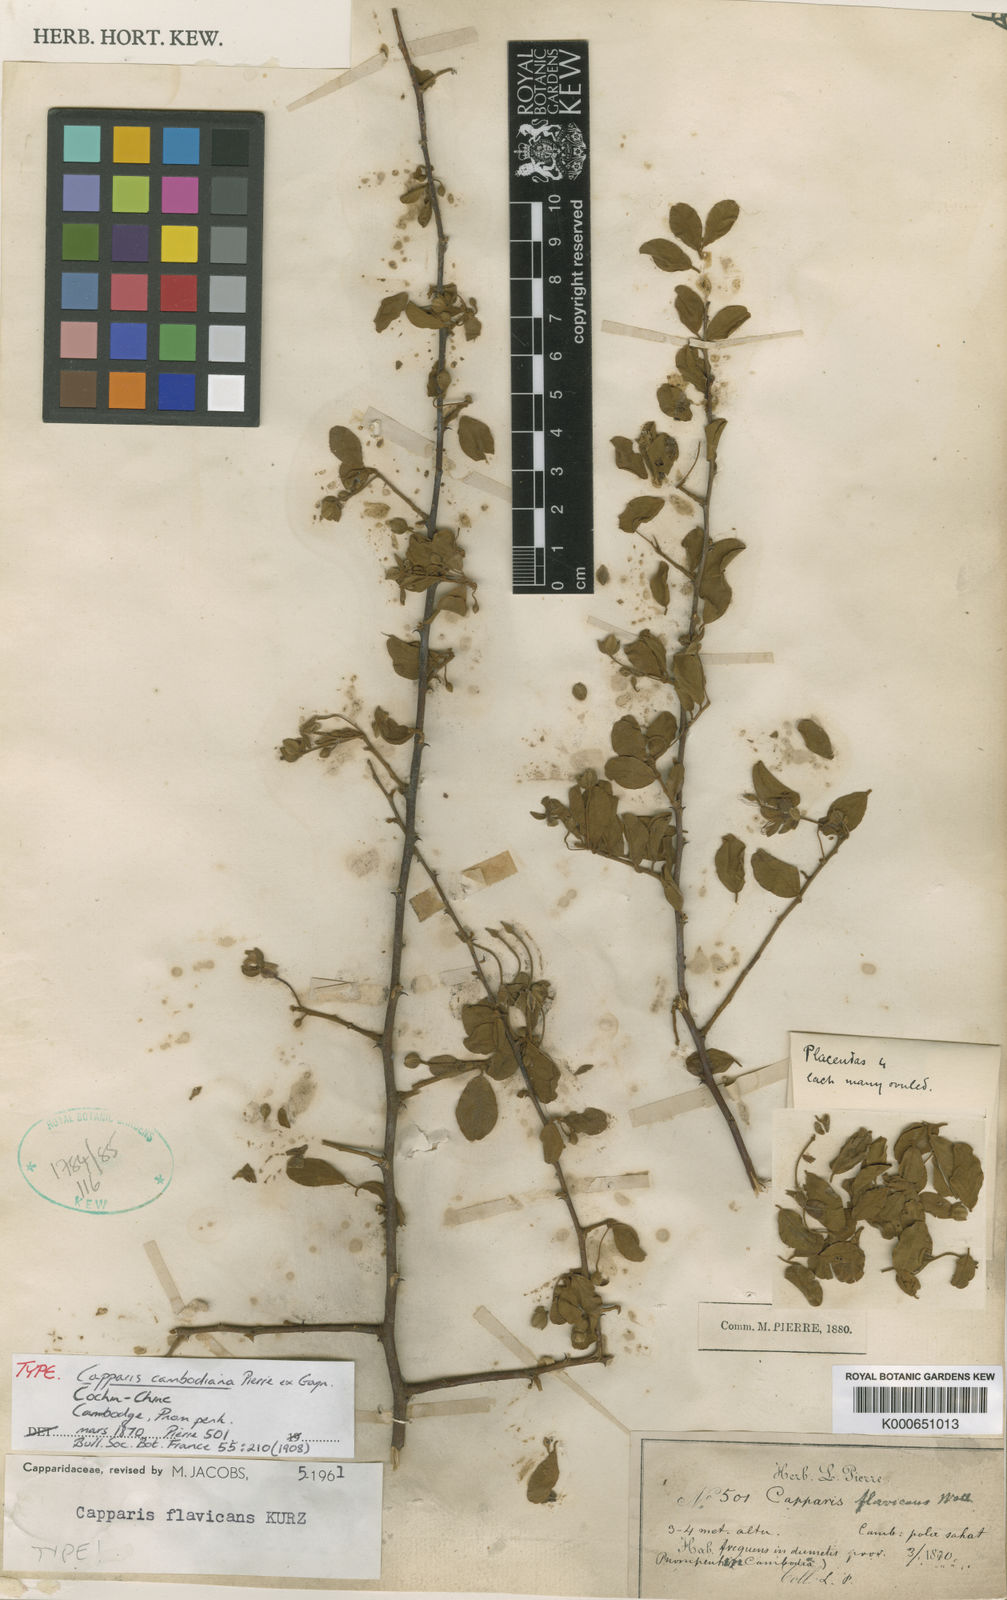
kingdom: Plantae
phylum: Tracheophyta
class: Magnoliopsida
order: Brassicales
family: Capparaceae
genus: Capparis
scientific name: Capparis flavicans
